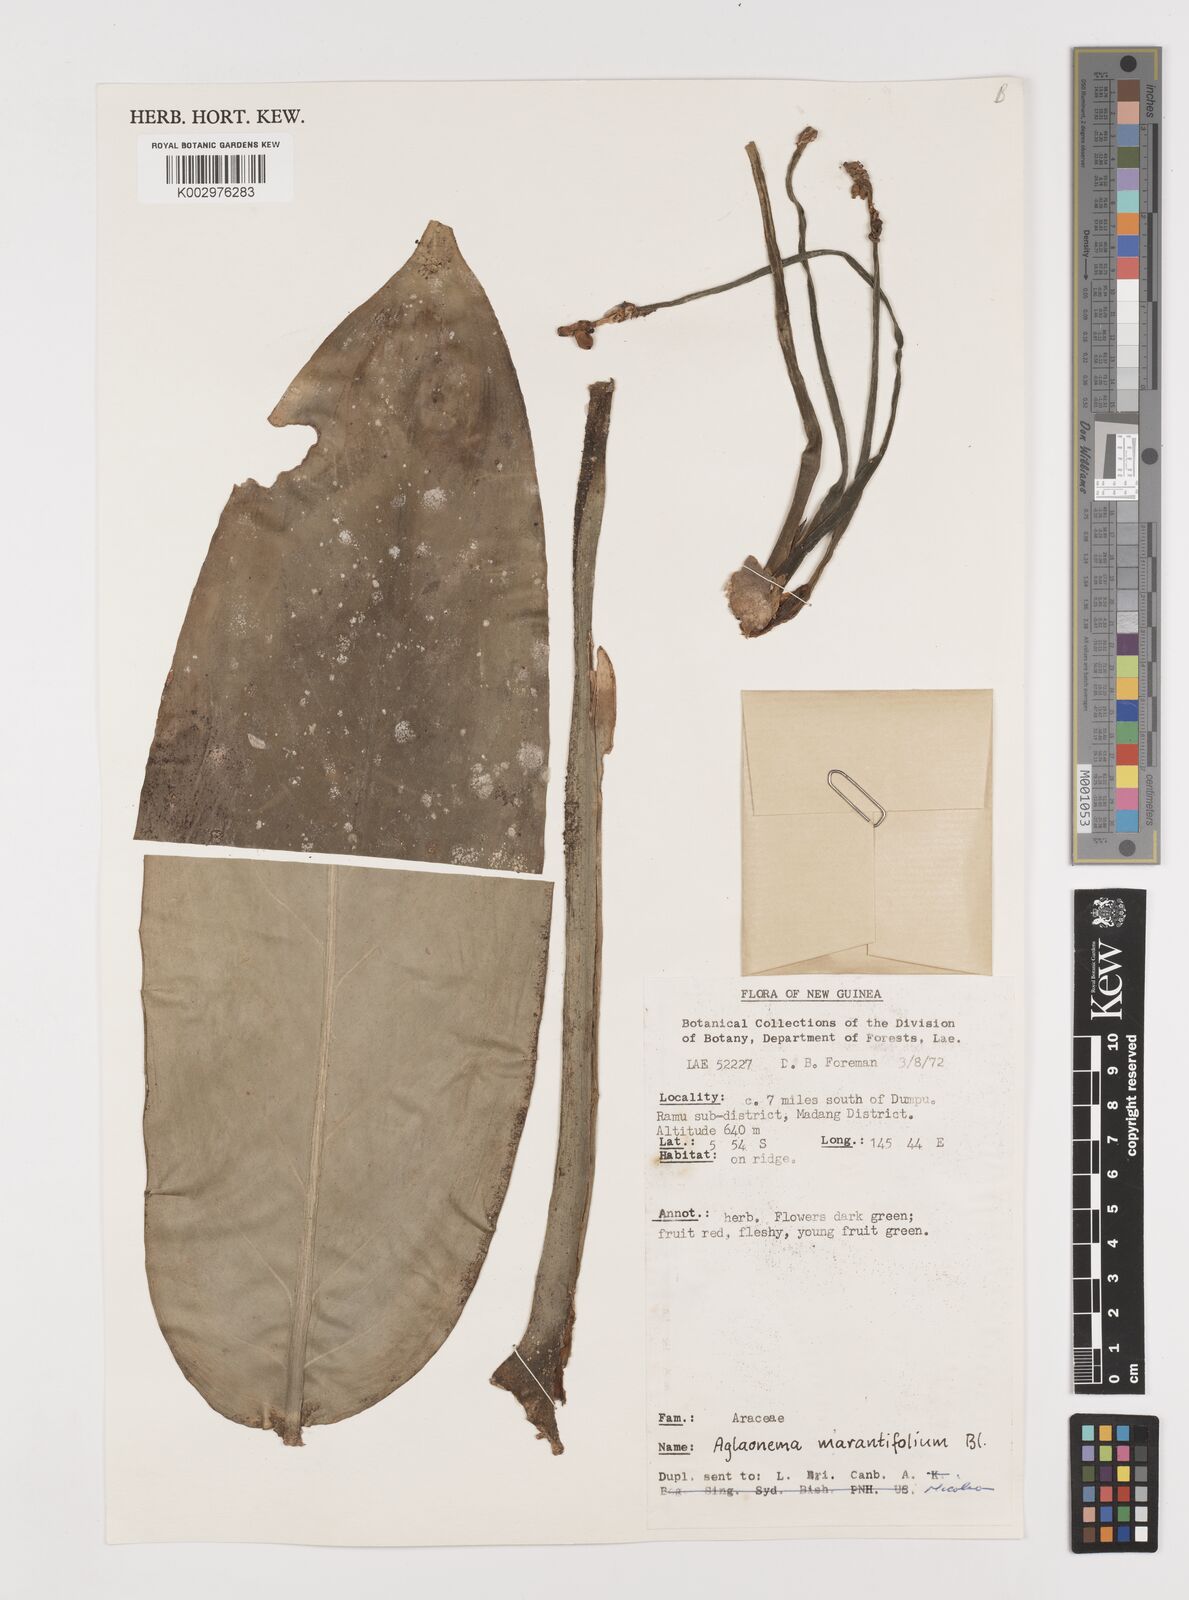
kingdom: Plantae
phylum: Tracheophyta
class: Liliopsida
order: Alismatales
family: Araceae
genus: Aglaonema
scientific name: Aglaonema marantifolium
